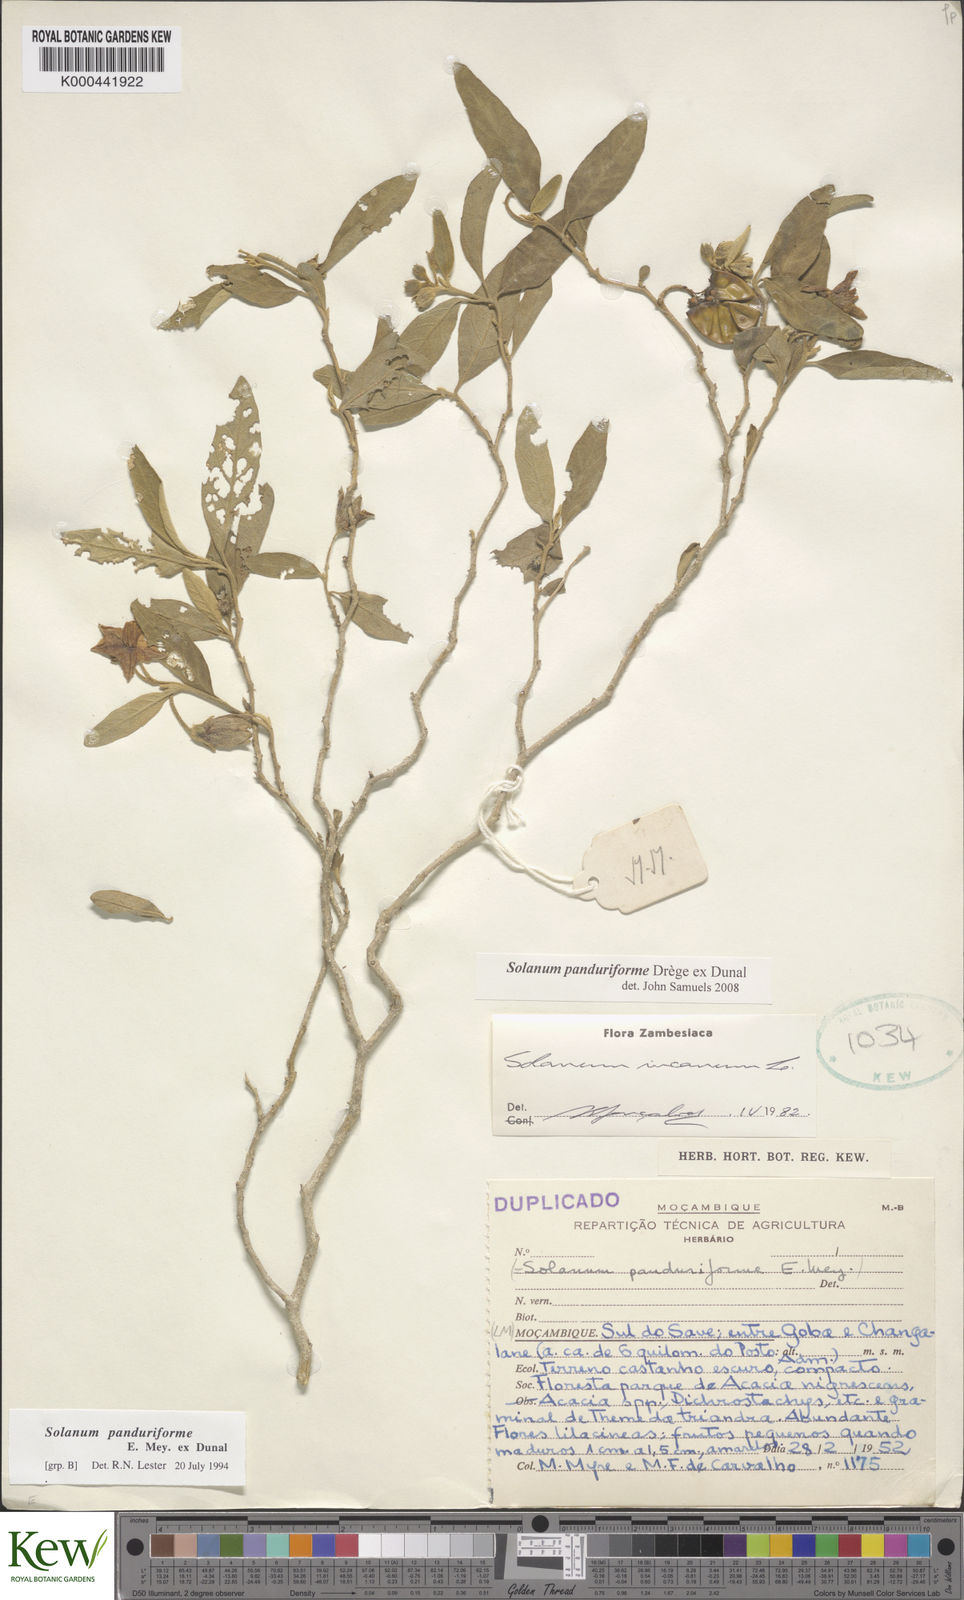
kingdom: Plantae
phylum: Tracheophyta
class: Magnoliopsida
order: Solanales
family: Solanaceae
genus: Solanum
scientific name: Solanum campylacanthum
